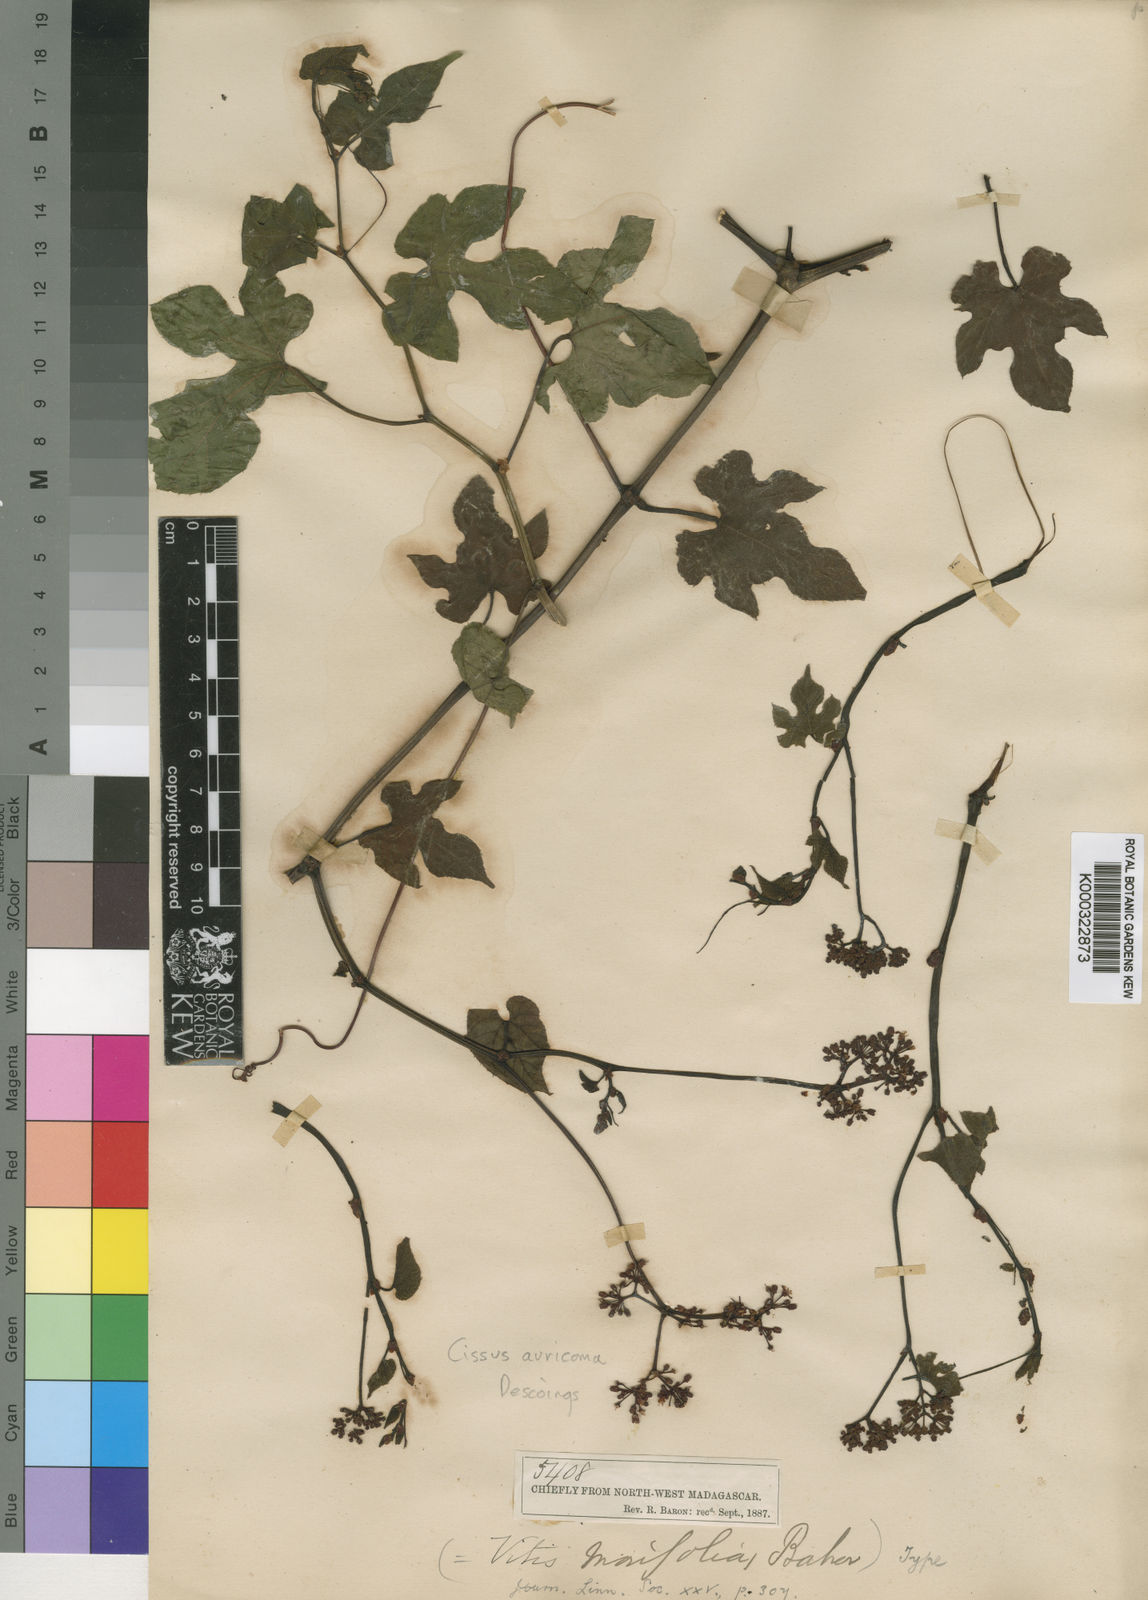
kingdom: Plantae
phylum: Tracheophyta
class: Magnoliopsida
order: Vitales
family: Vitaceae
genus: Cissus
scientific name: Cissus auricoma
